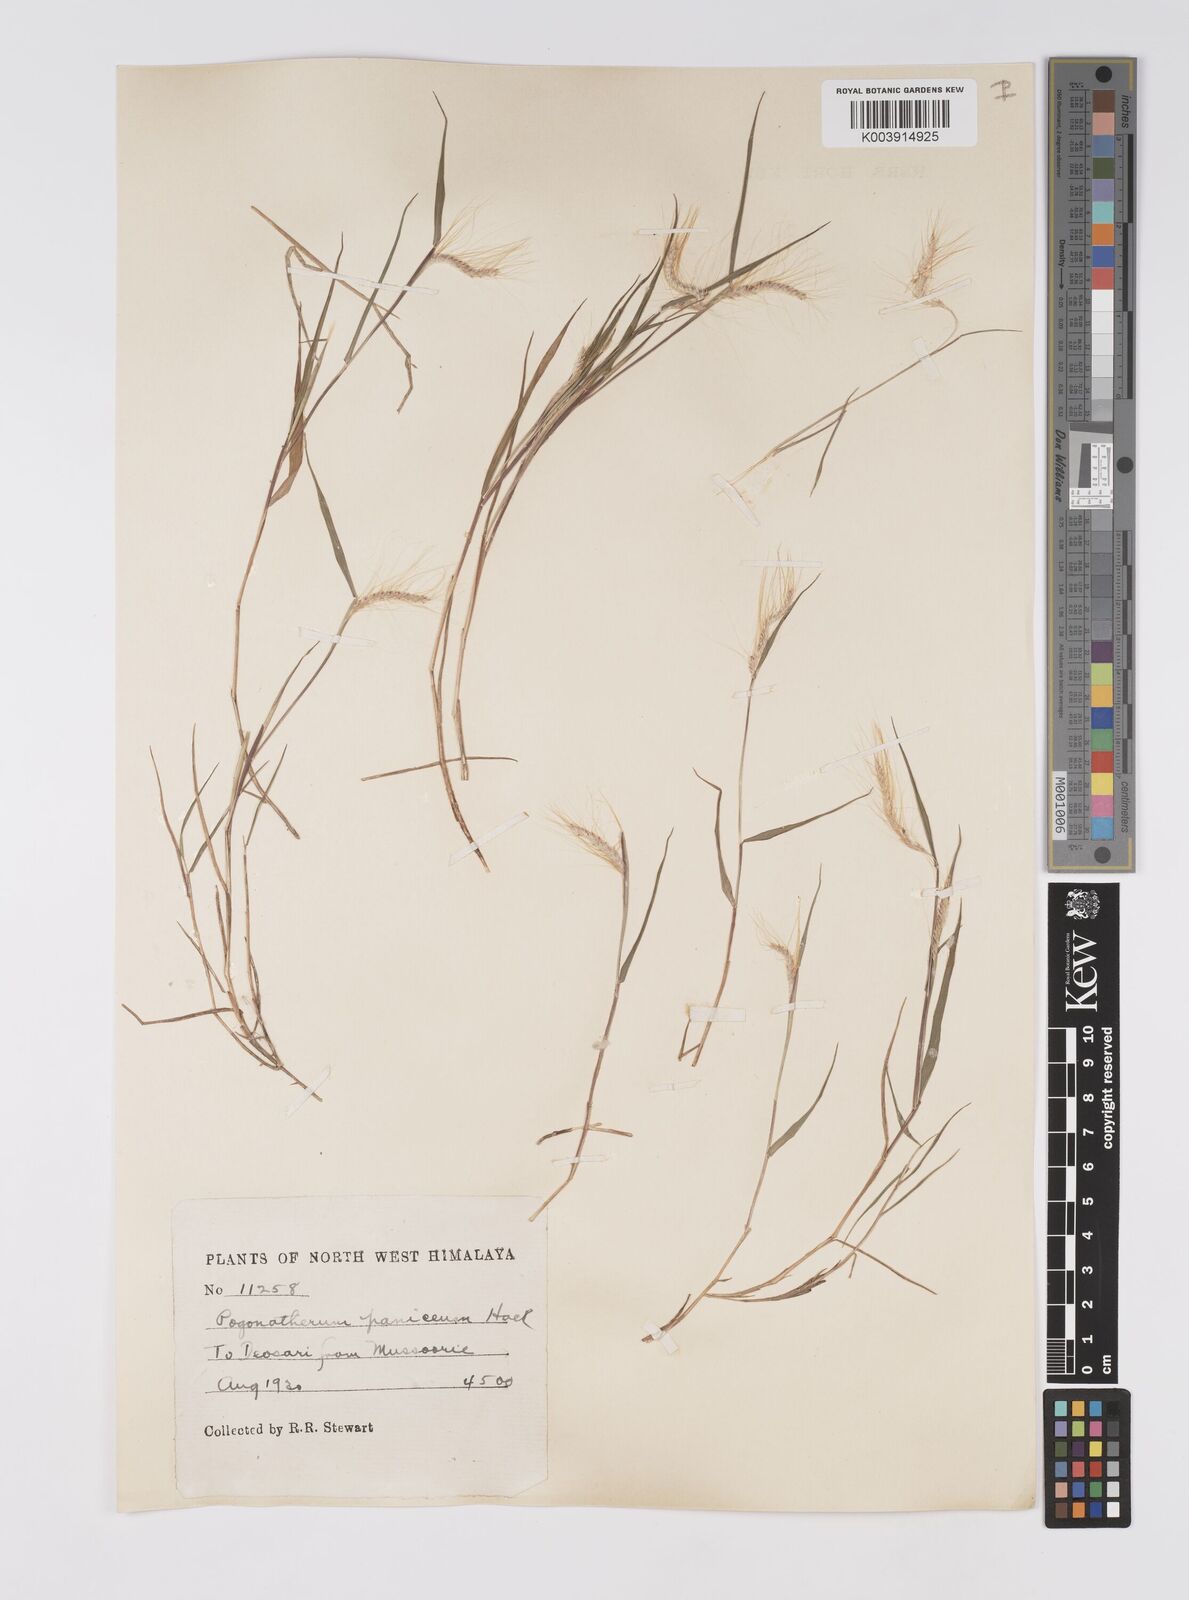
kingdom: Plantae
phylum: Tracheophyta
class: Liliopsida
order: Poales
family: Poaceae
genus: Pogonatherum
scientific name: Pogonatherum paniceum
